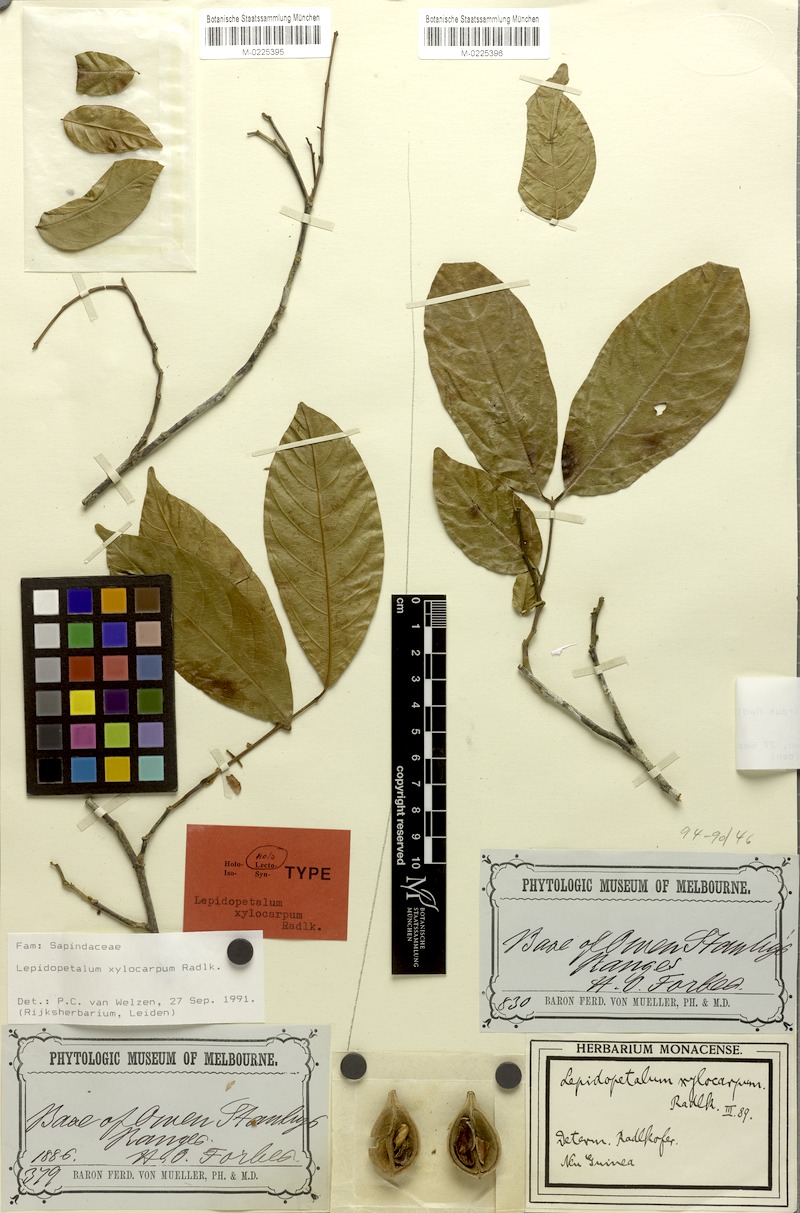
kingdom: Plantae
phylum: Tracheophyta
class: Magnoliopsida
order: Sapindales
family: Sapindaceae
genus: Lepidopetalum
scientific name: Lepidopetalum xylocarpum
